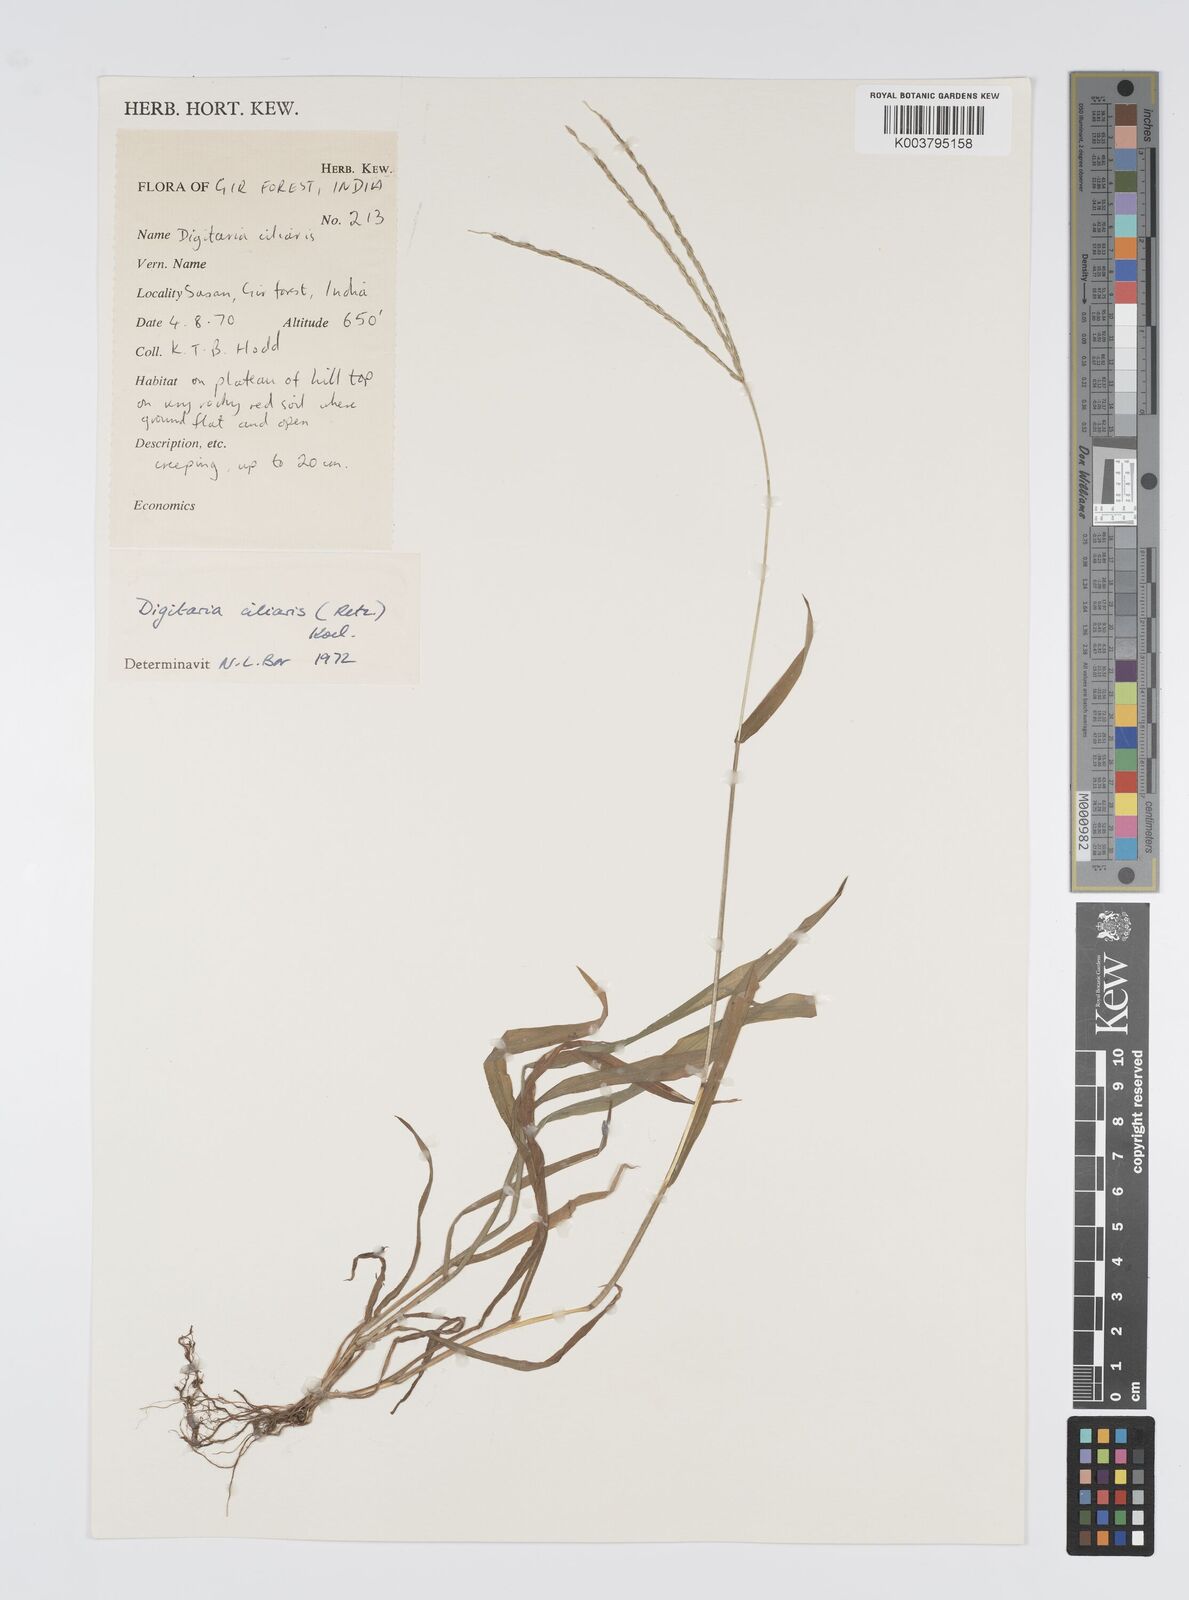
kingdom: Plantae
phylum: Tracheophyta
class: Liliopsida
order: Poales
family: Poaceae
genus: Digitaria
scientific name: Digitaria ciliaris
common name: Tropical finger-grass
